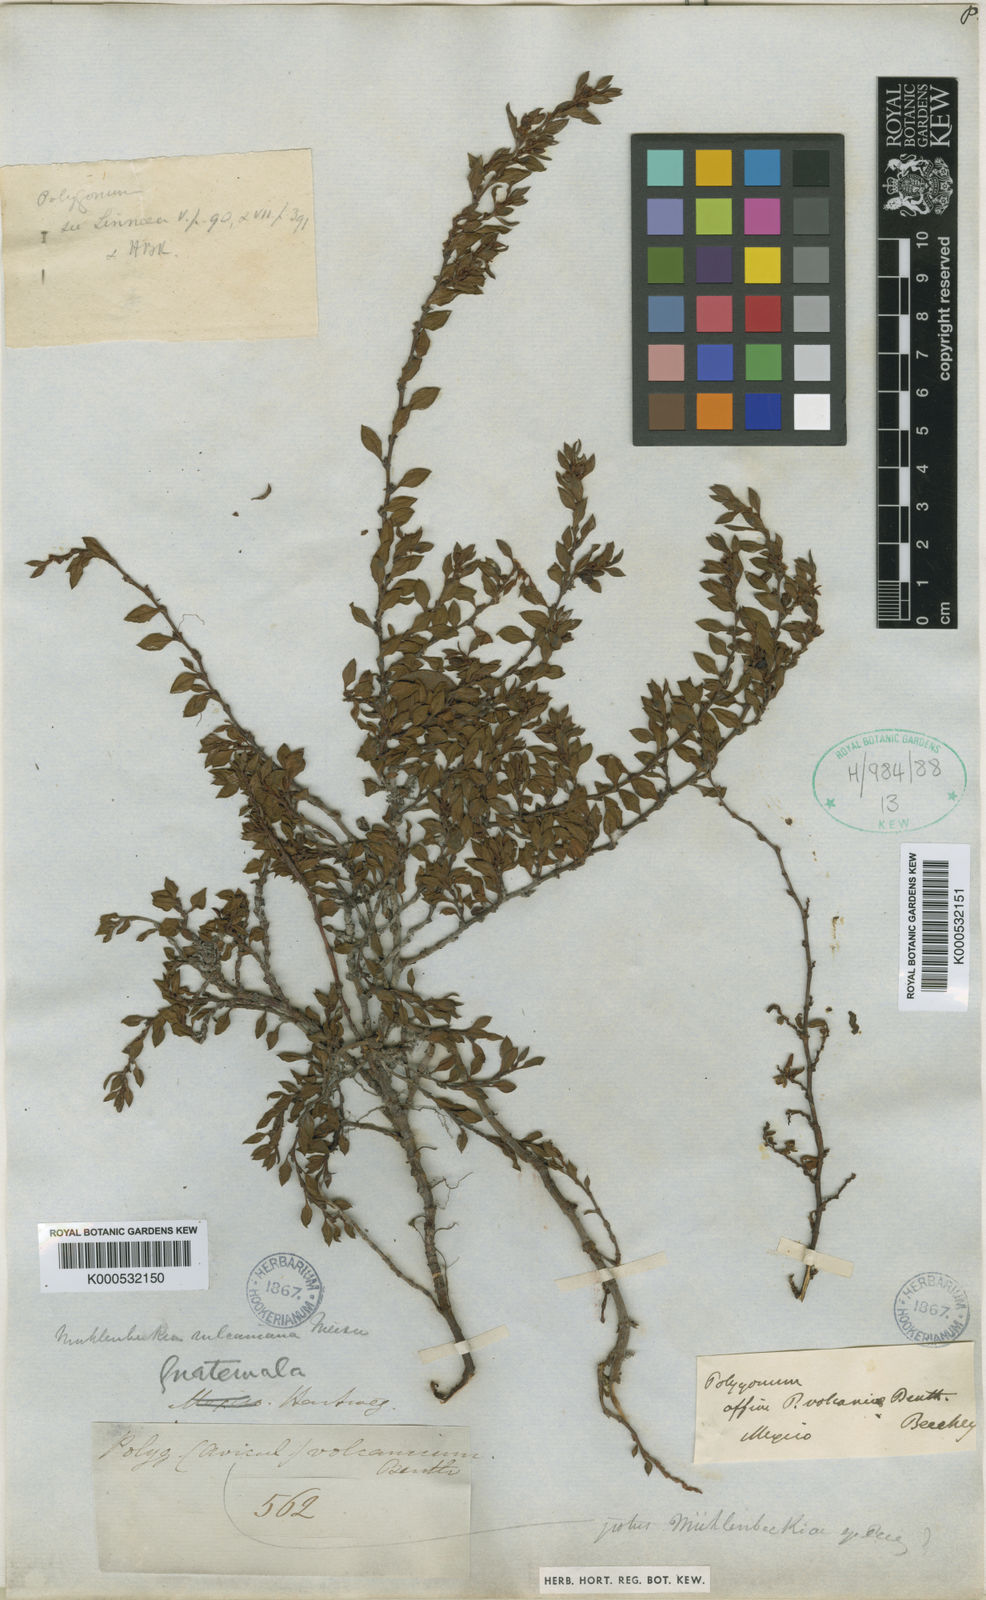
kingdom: Plantae
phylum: Tracheophyta
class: Magnoliopsida
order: Caryophyllales
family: Polygonaceae
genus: Muehlenbeckia
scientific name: Muehlenbeckia volcanica
